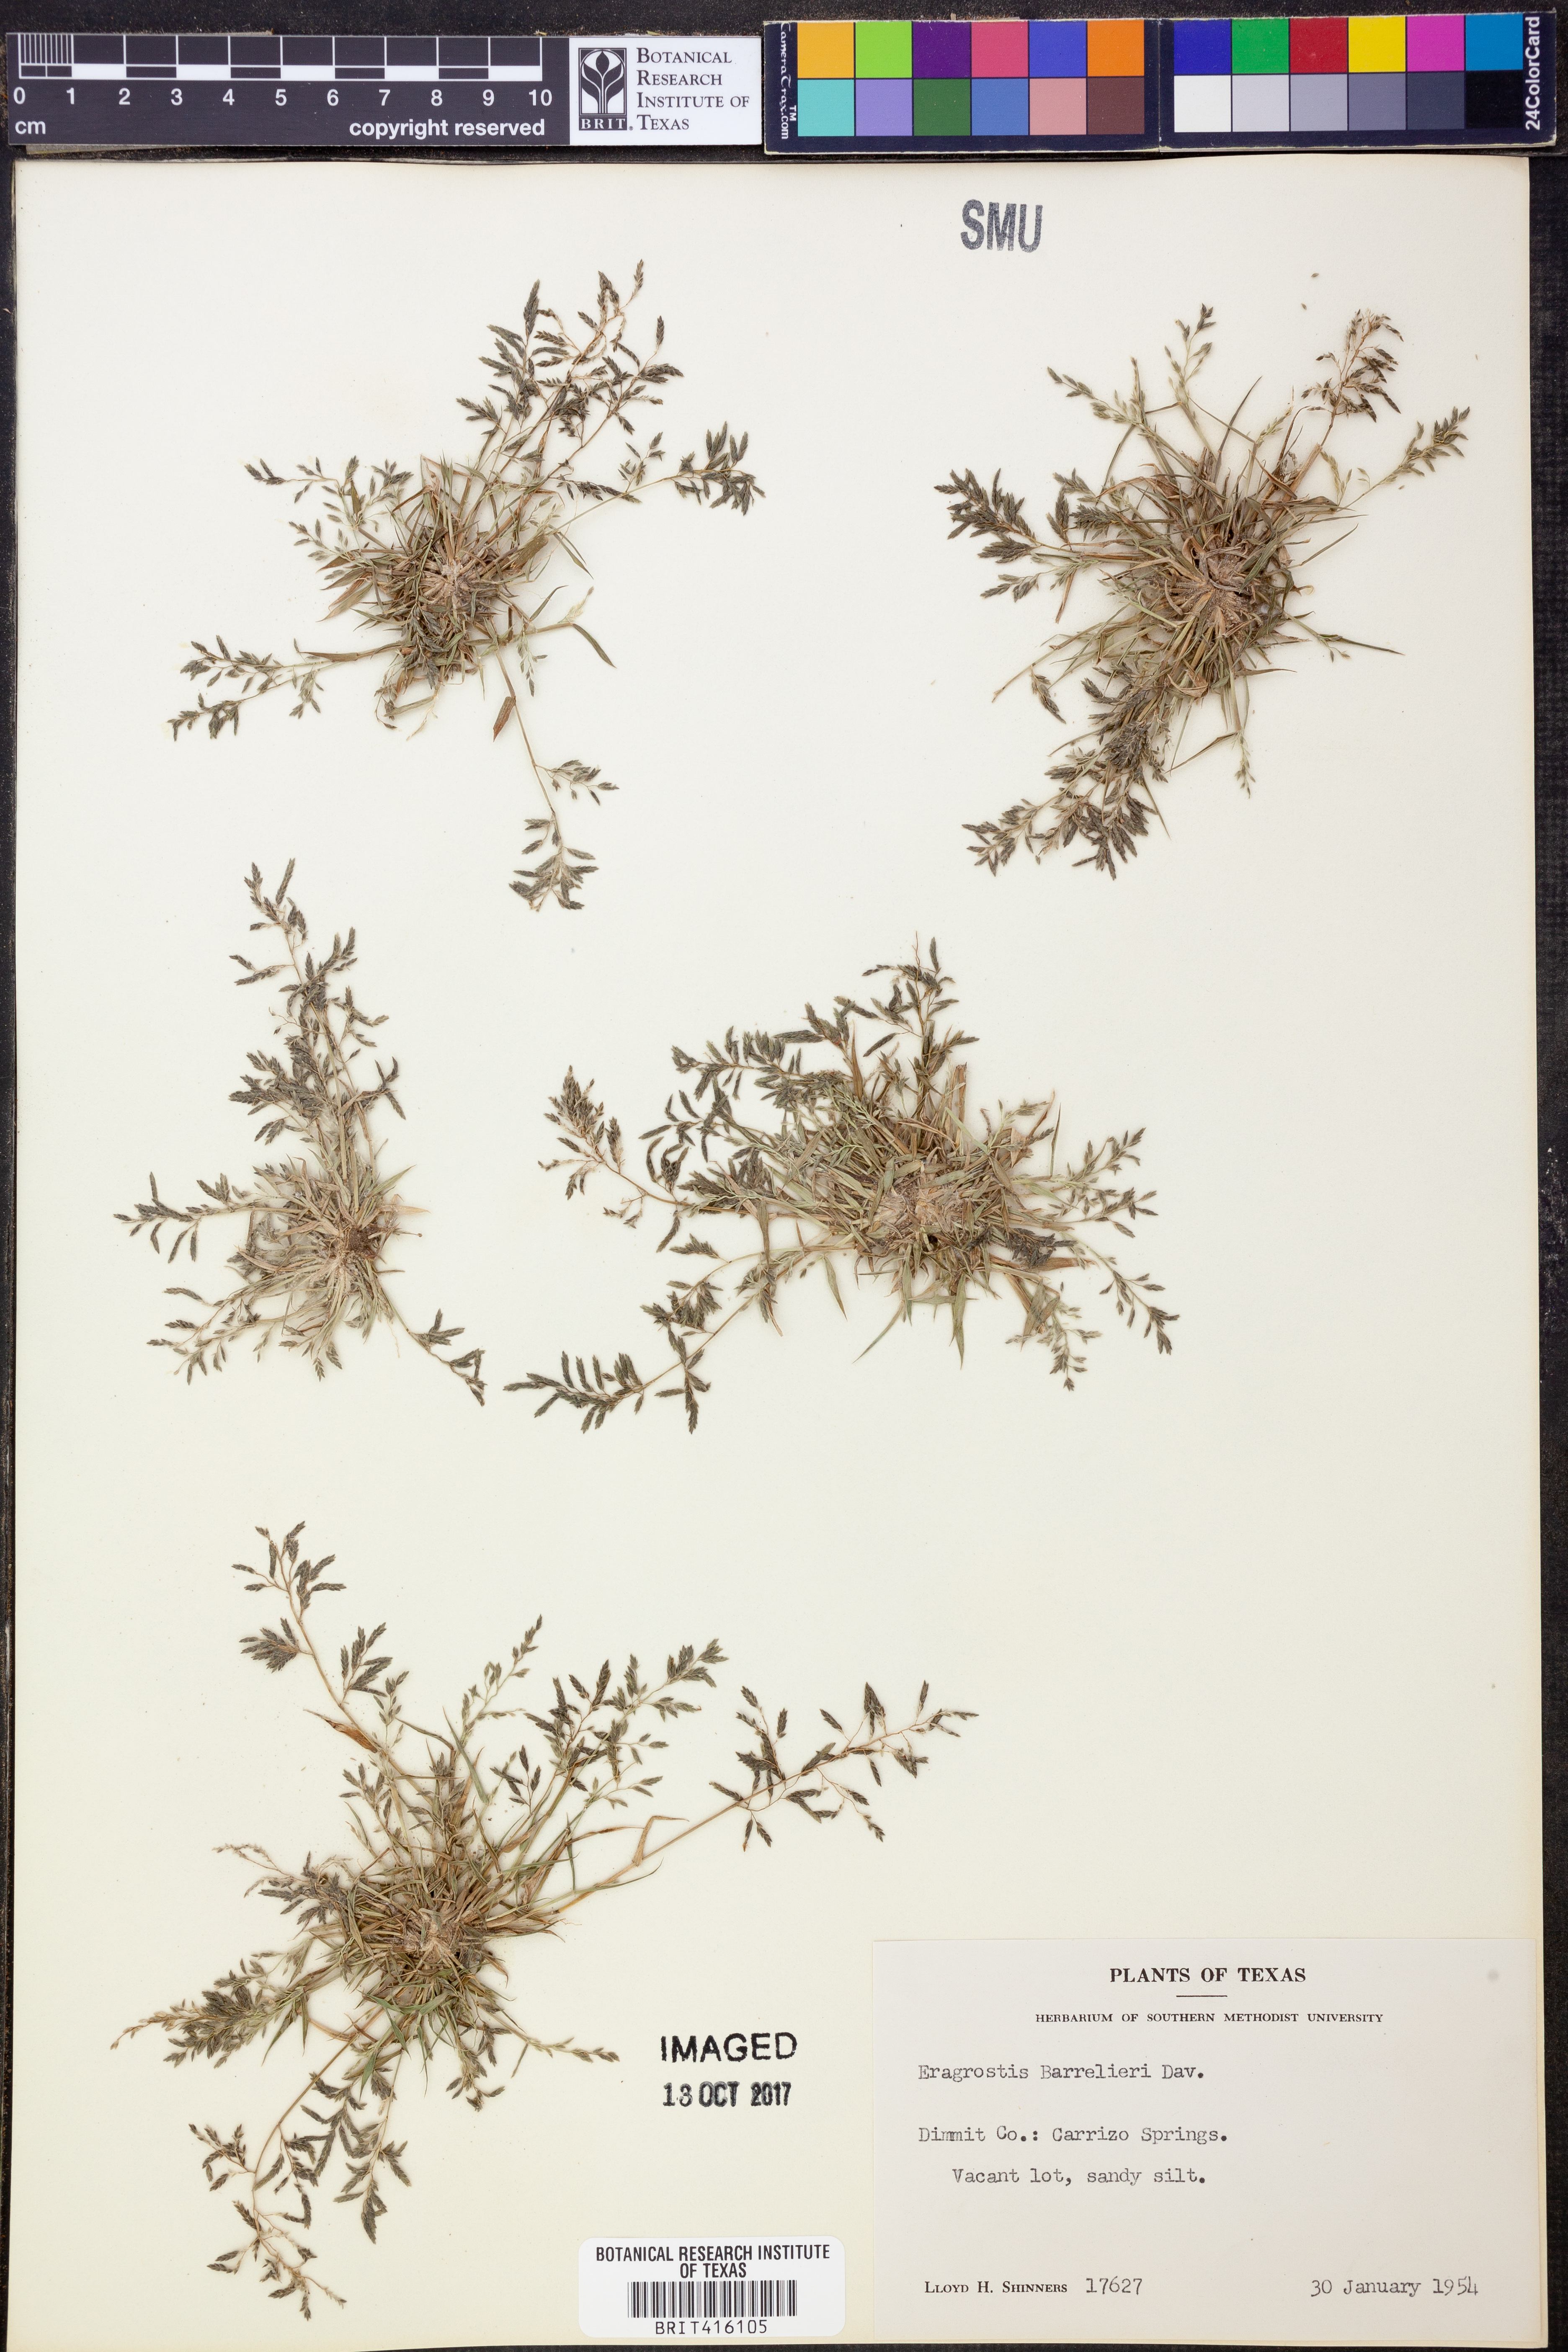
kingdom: Plantae
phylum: Tracheophyta
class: Liliopsida
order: Poales
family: Poaceae
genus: Eragrostis
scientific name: Eragrostis barrelieri
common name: Mediterranean lovegrass
